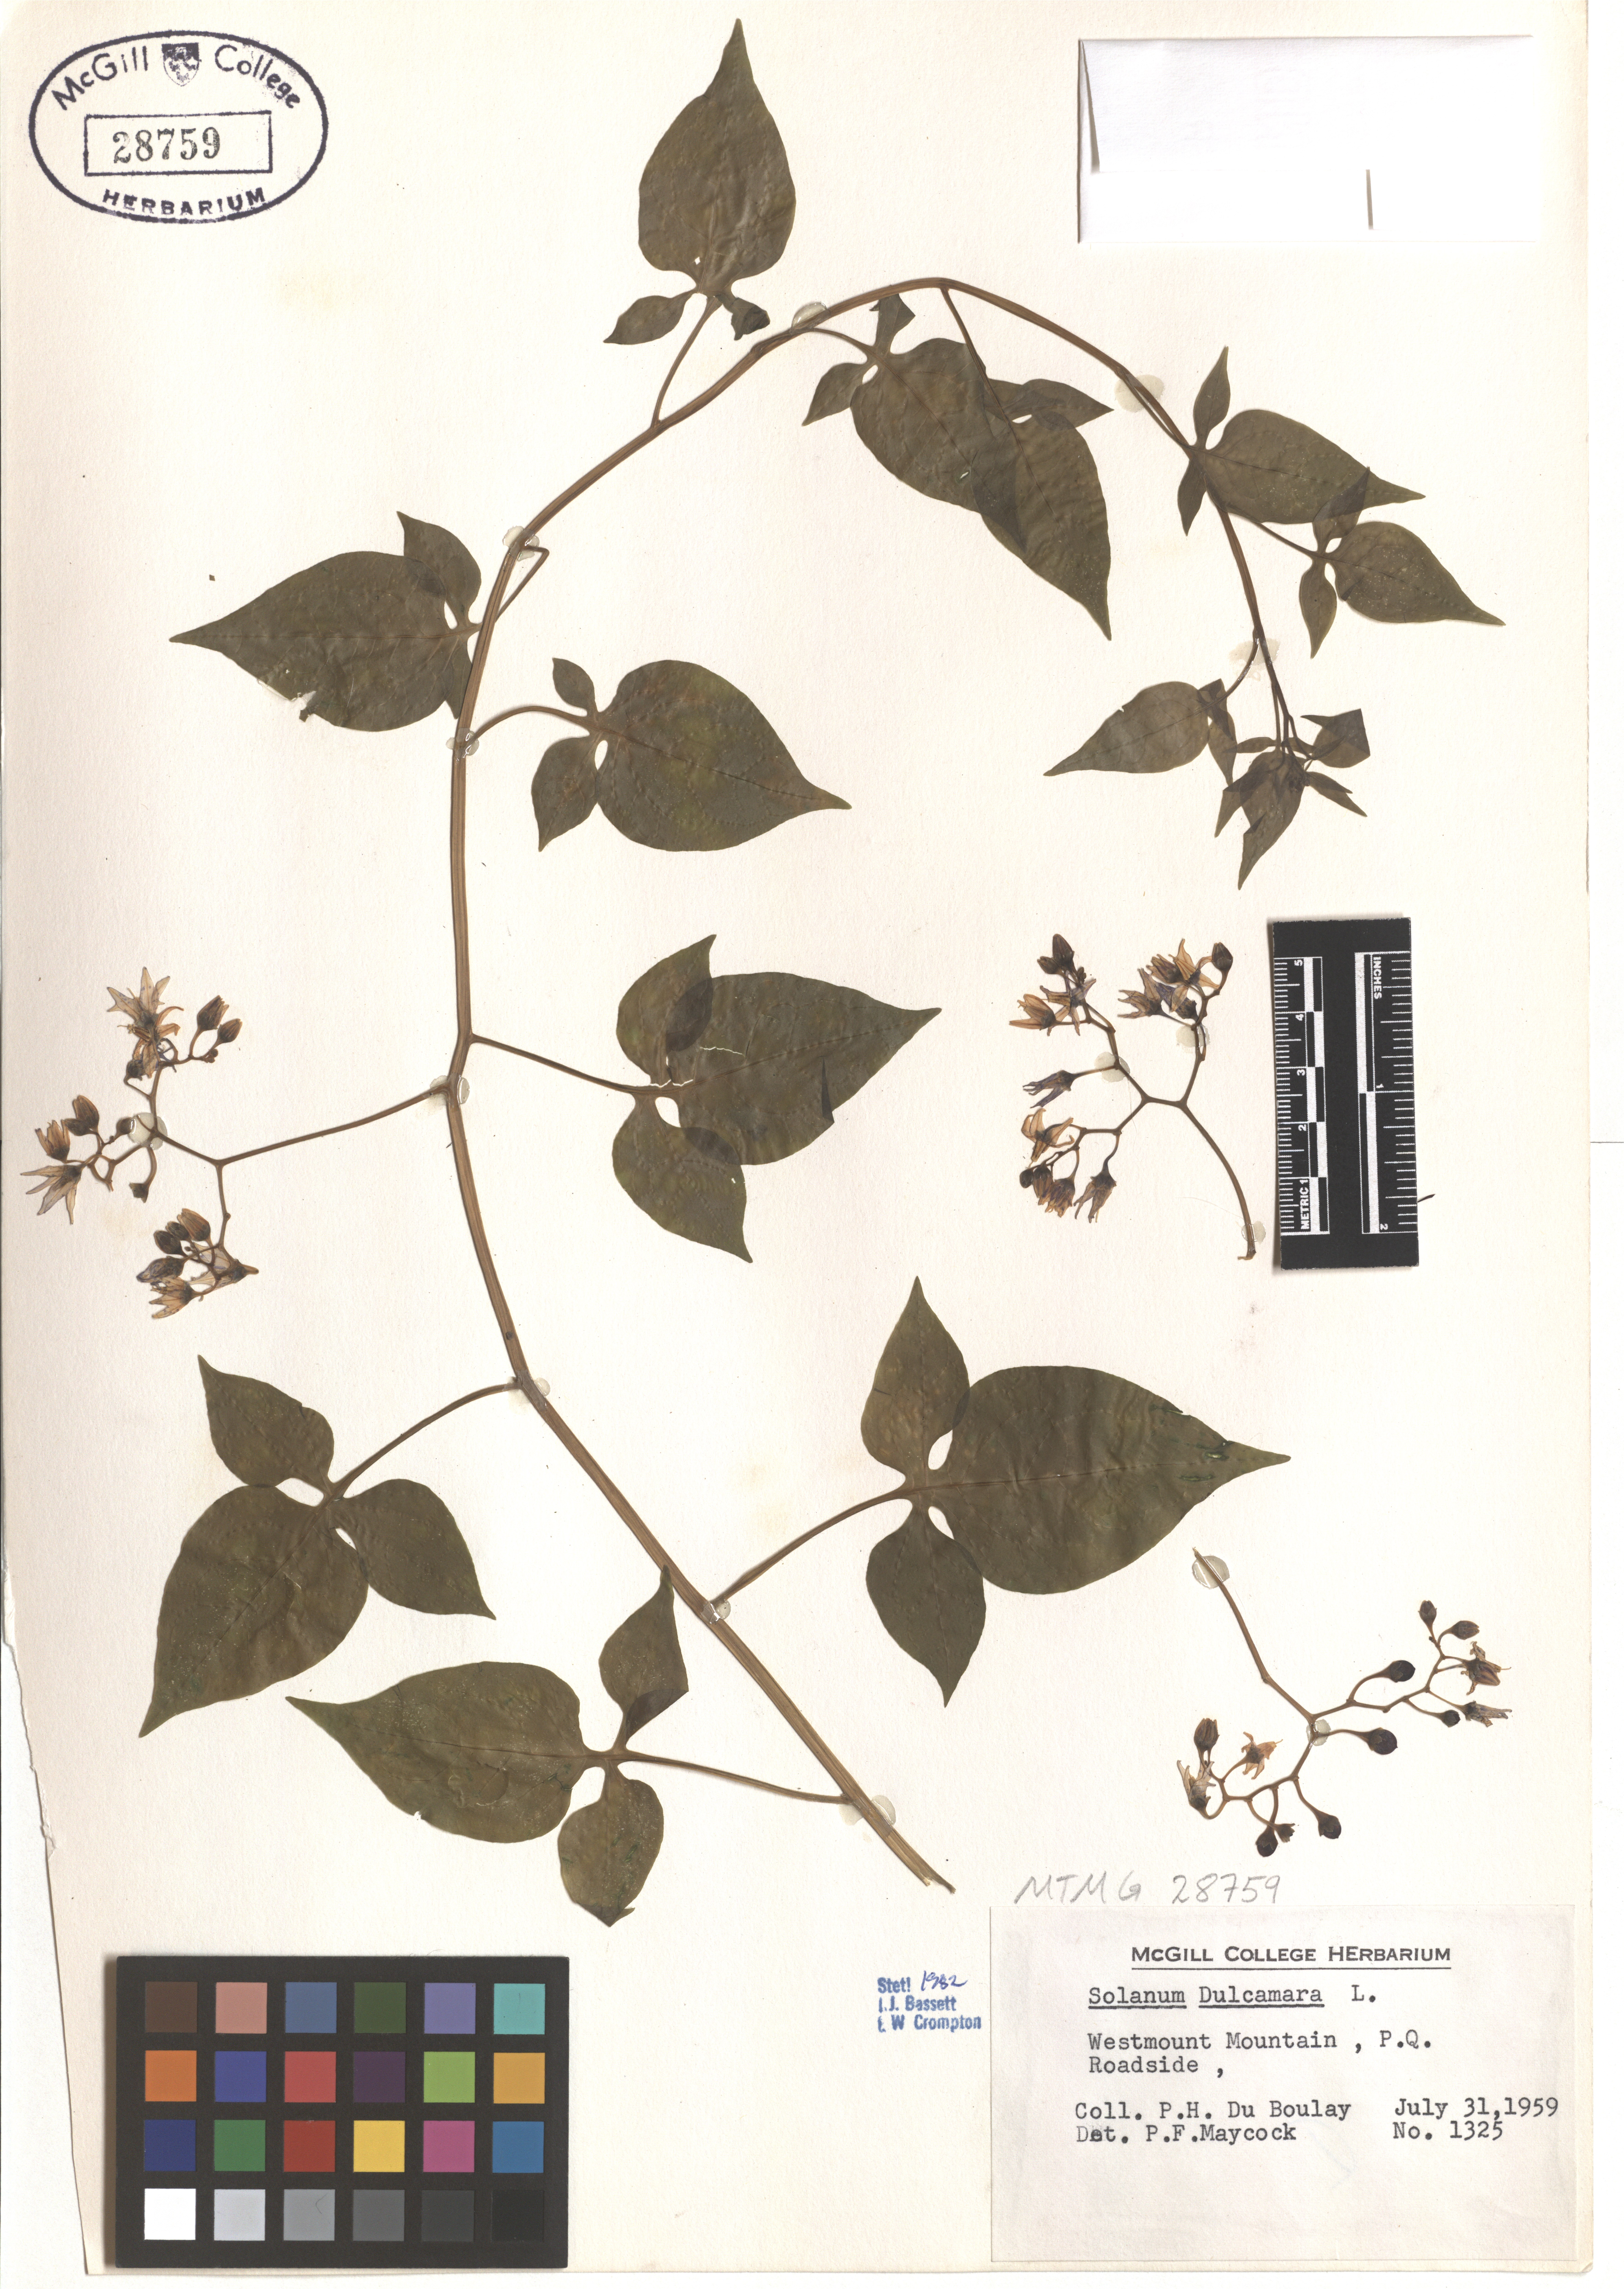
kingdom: Plantae
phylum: Tracheophyta
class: Magnoliopsida
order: Solanales
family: Solanaceae
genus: Solanum
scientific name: Solanum dulcamara
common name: Climbing nightshade
